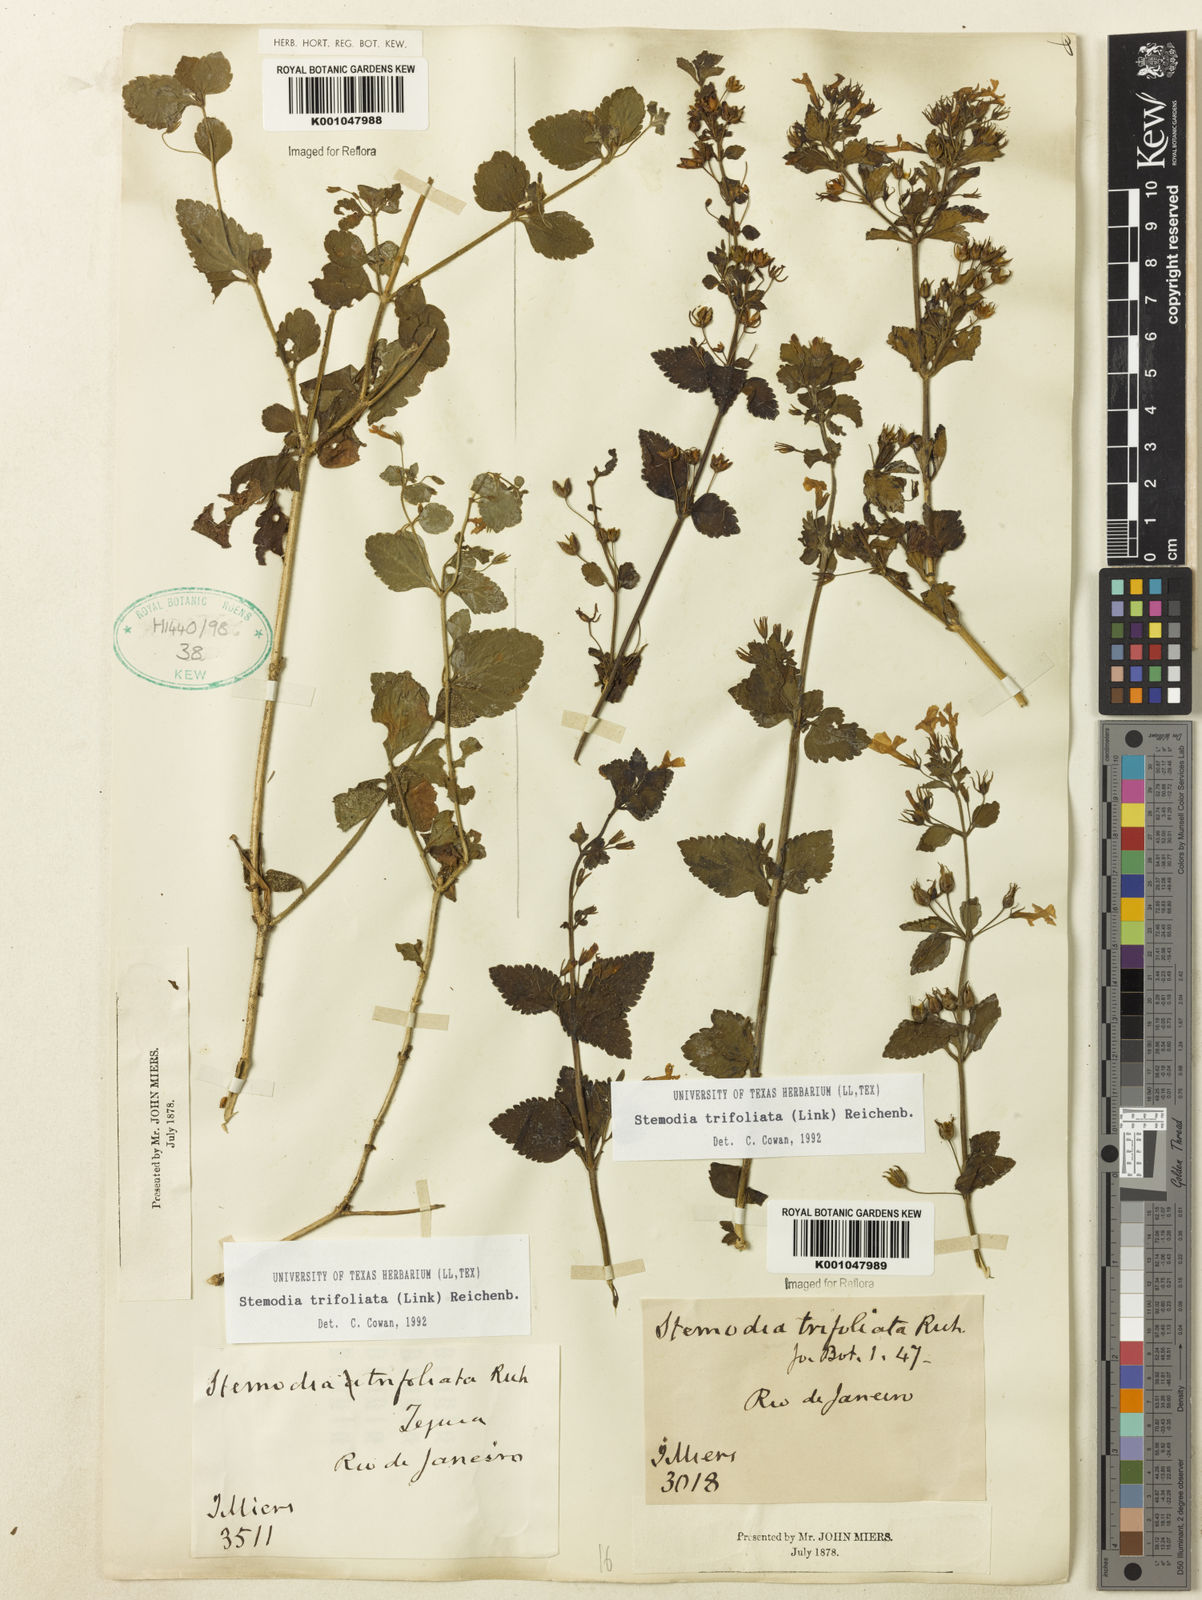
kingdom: Plantae
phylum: Tracheophyta
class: Magnoliopsida
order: Lamiales
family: Plantaginaceae
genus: Stemodia
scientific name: Stemodia trifoliata
